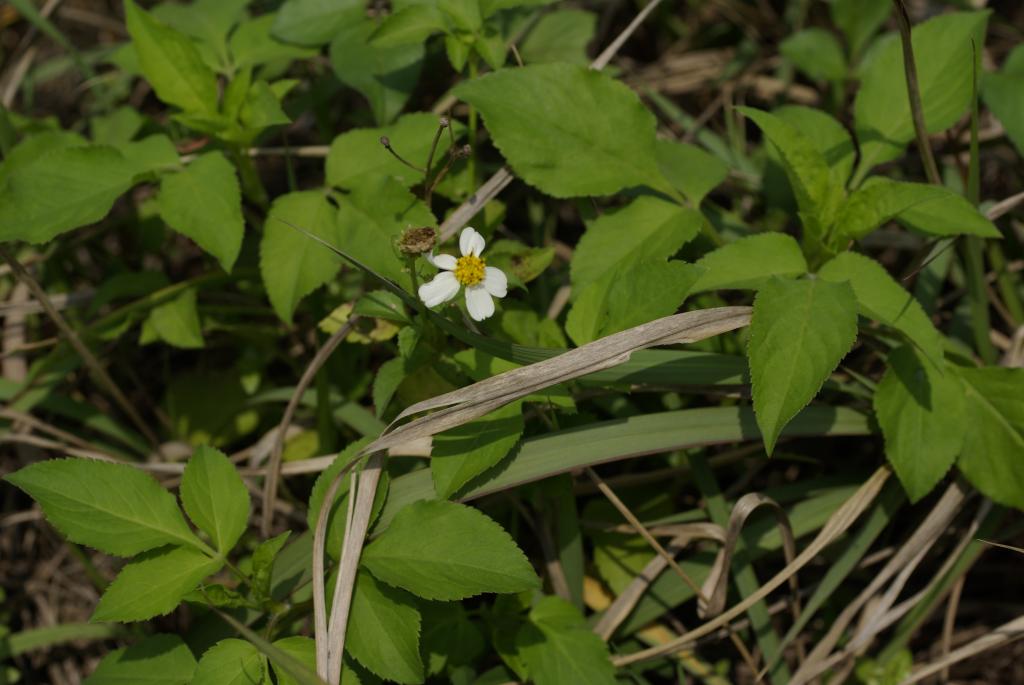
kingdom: Plantae
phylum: Tracheophyta
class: Magnoliopsida
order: Asterales
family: Asteraceae
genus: Bidens
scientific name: Bidens pilosa
